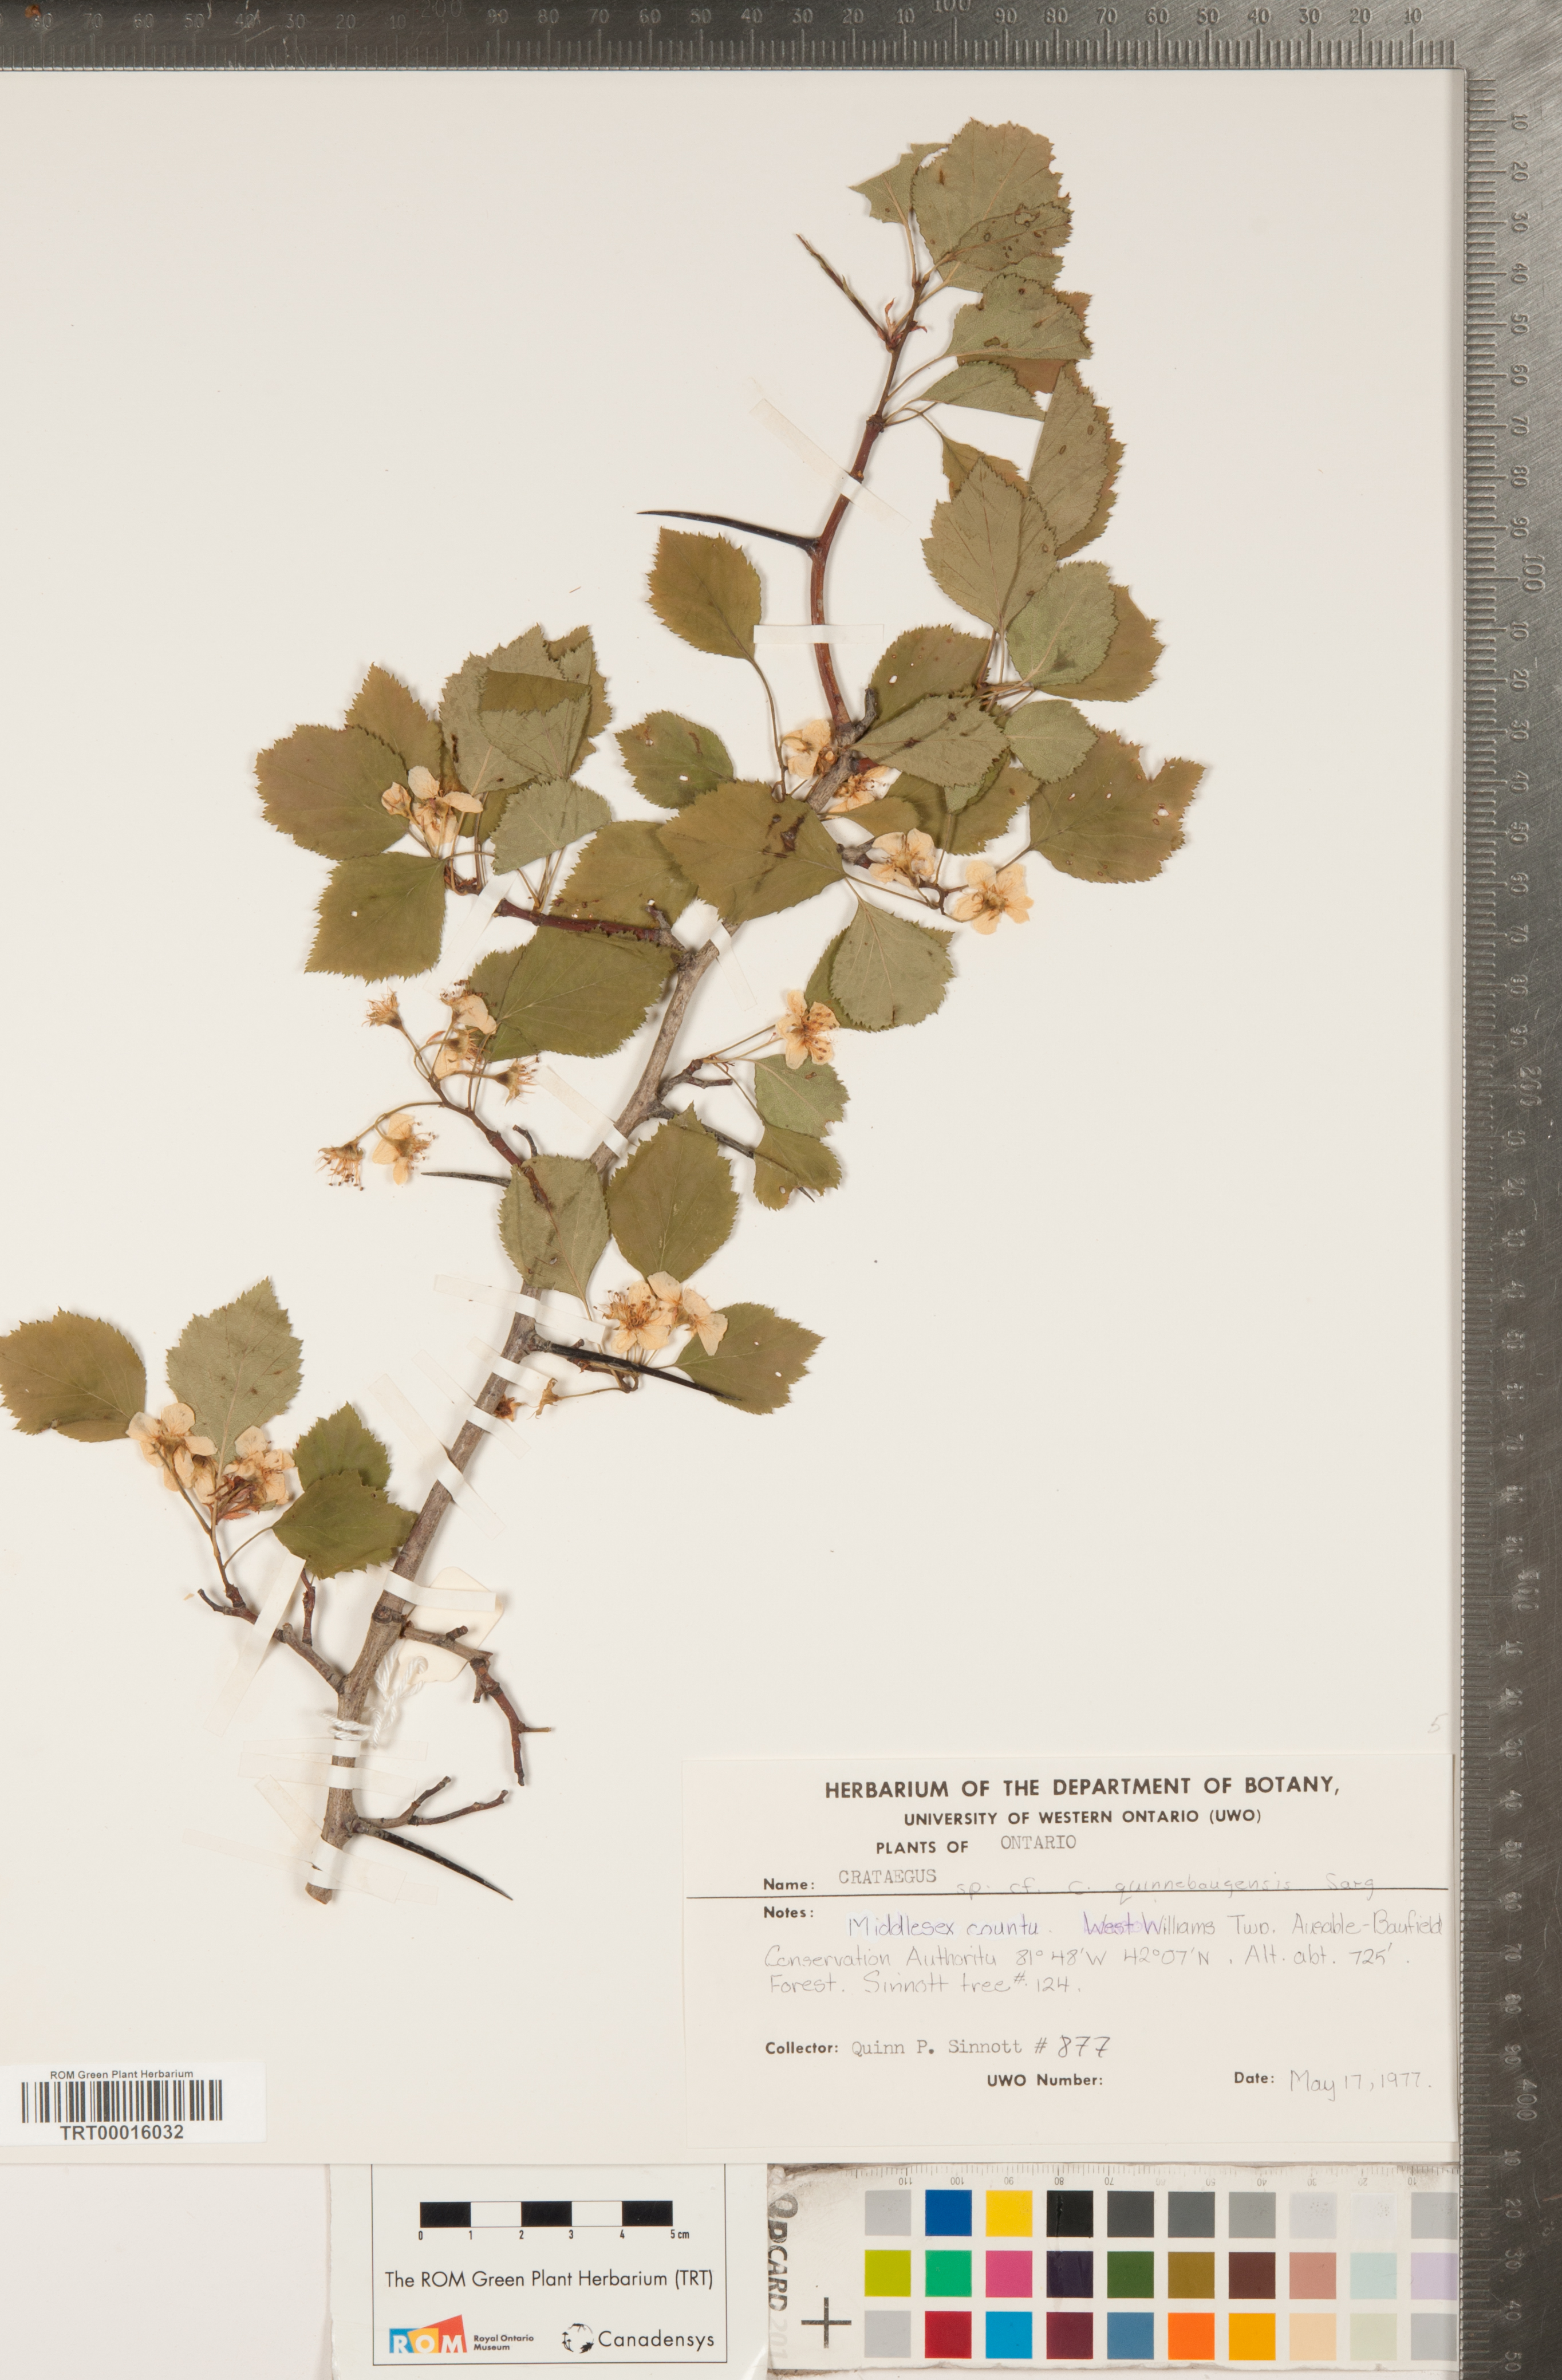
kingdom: Plantae
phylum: Tracheophyta
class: Magnoliopsida
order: Rosales
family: Rosaceae
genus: Crataegus
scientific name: Crataegus quinebaugensis
